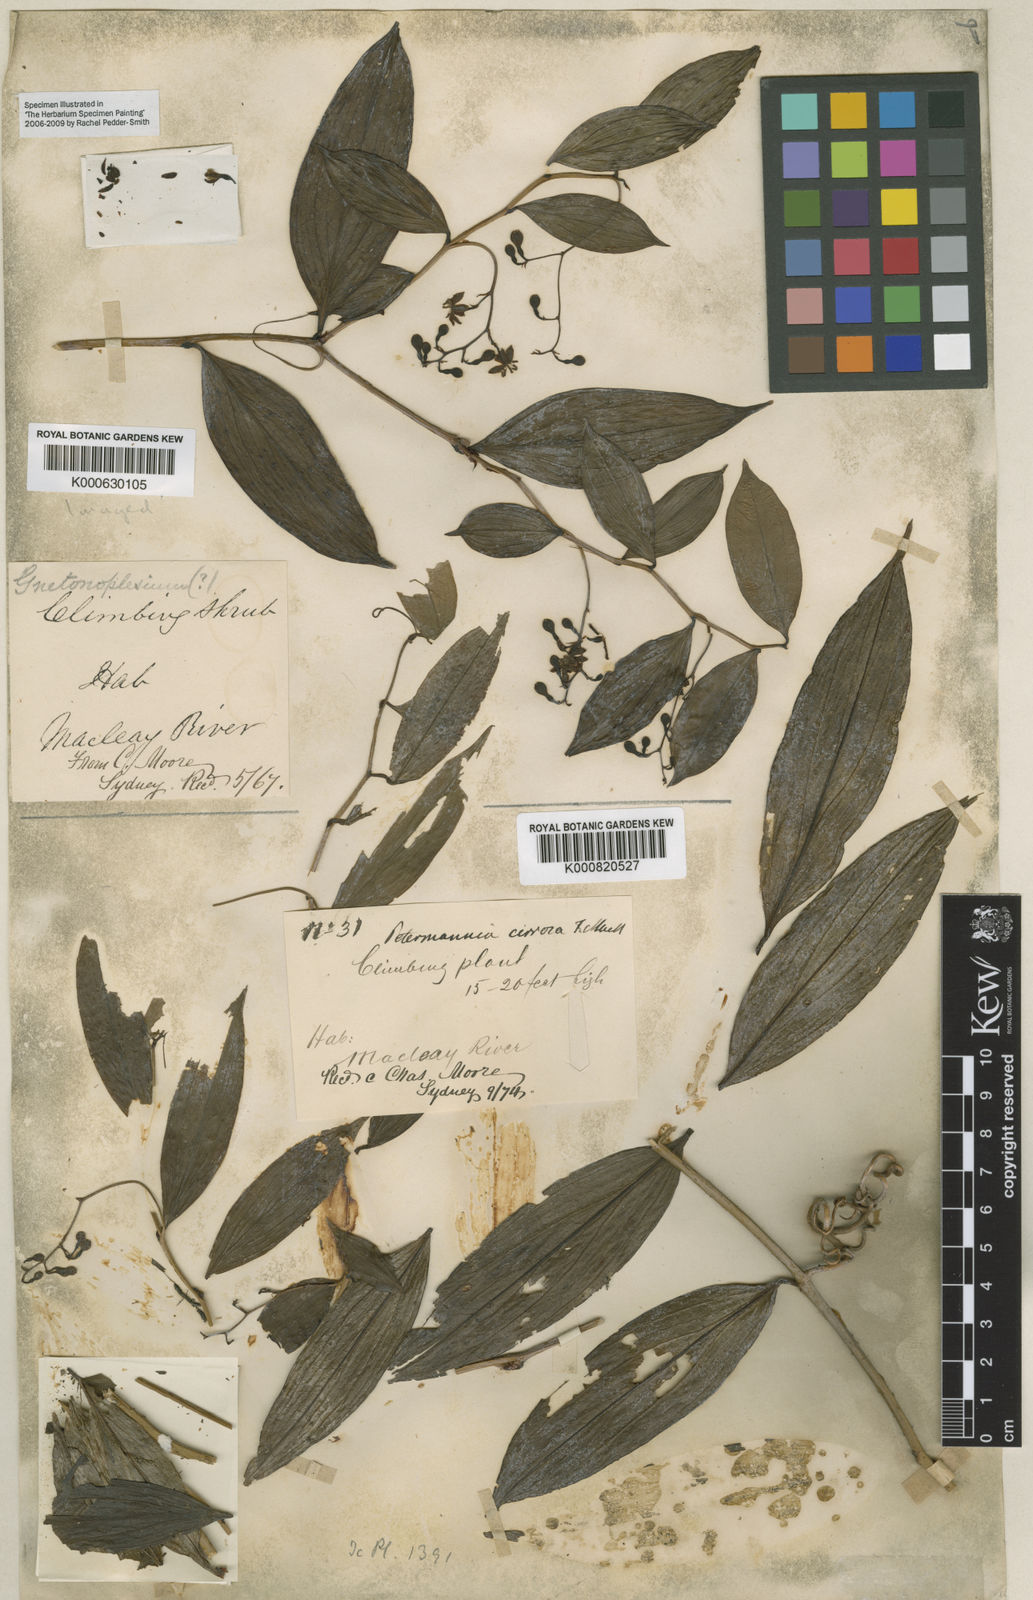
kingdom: Plantae
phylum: Tracheophyta
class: Liliopsida
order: Liliales
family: Petermanniaceae
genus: Petermannia
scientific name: Petermannia cirrosa
